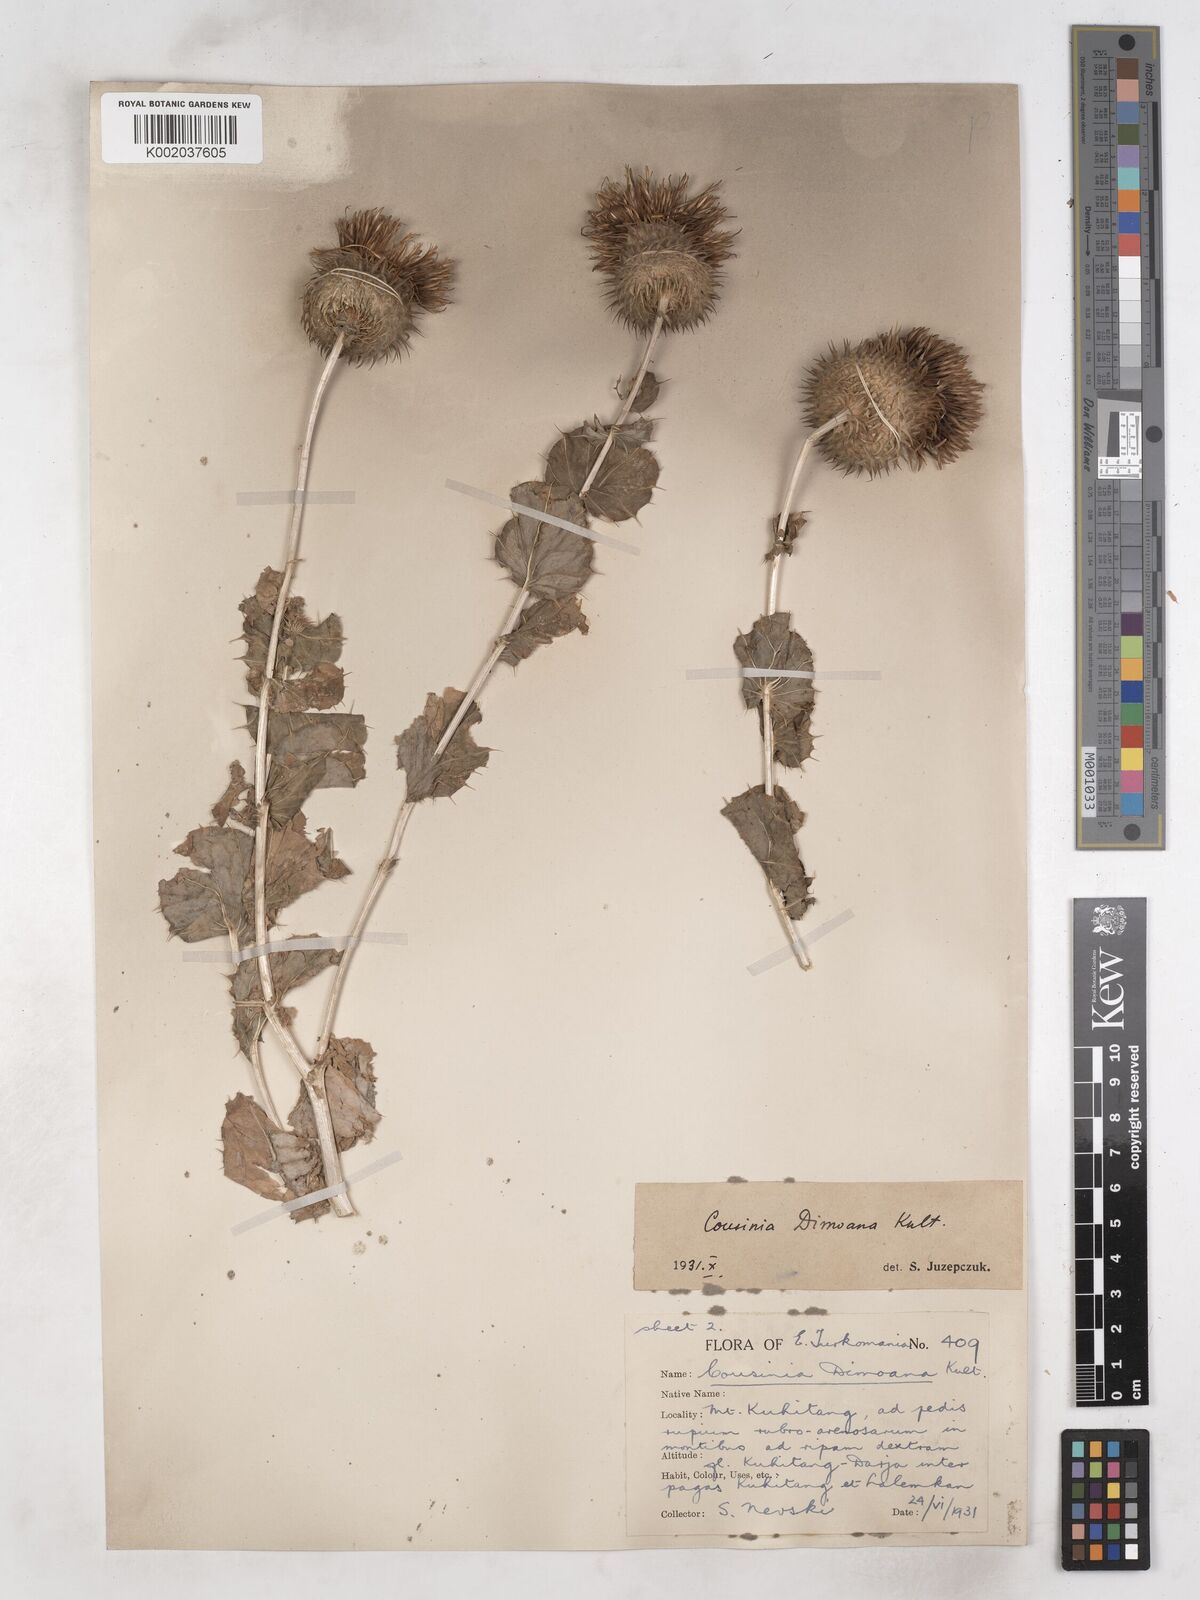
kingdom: Plantae
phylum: Tracheophyta
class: Magnoliopsida
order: Asterales
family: Asteraceae
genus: Cousinia
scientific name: Cousinia dimoana
